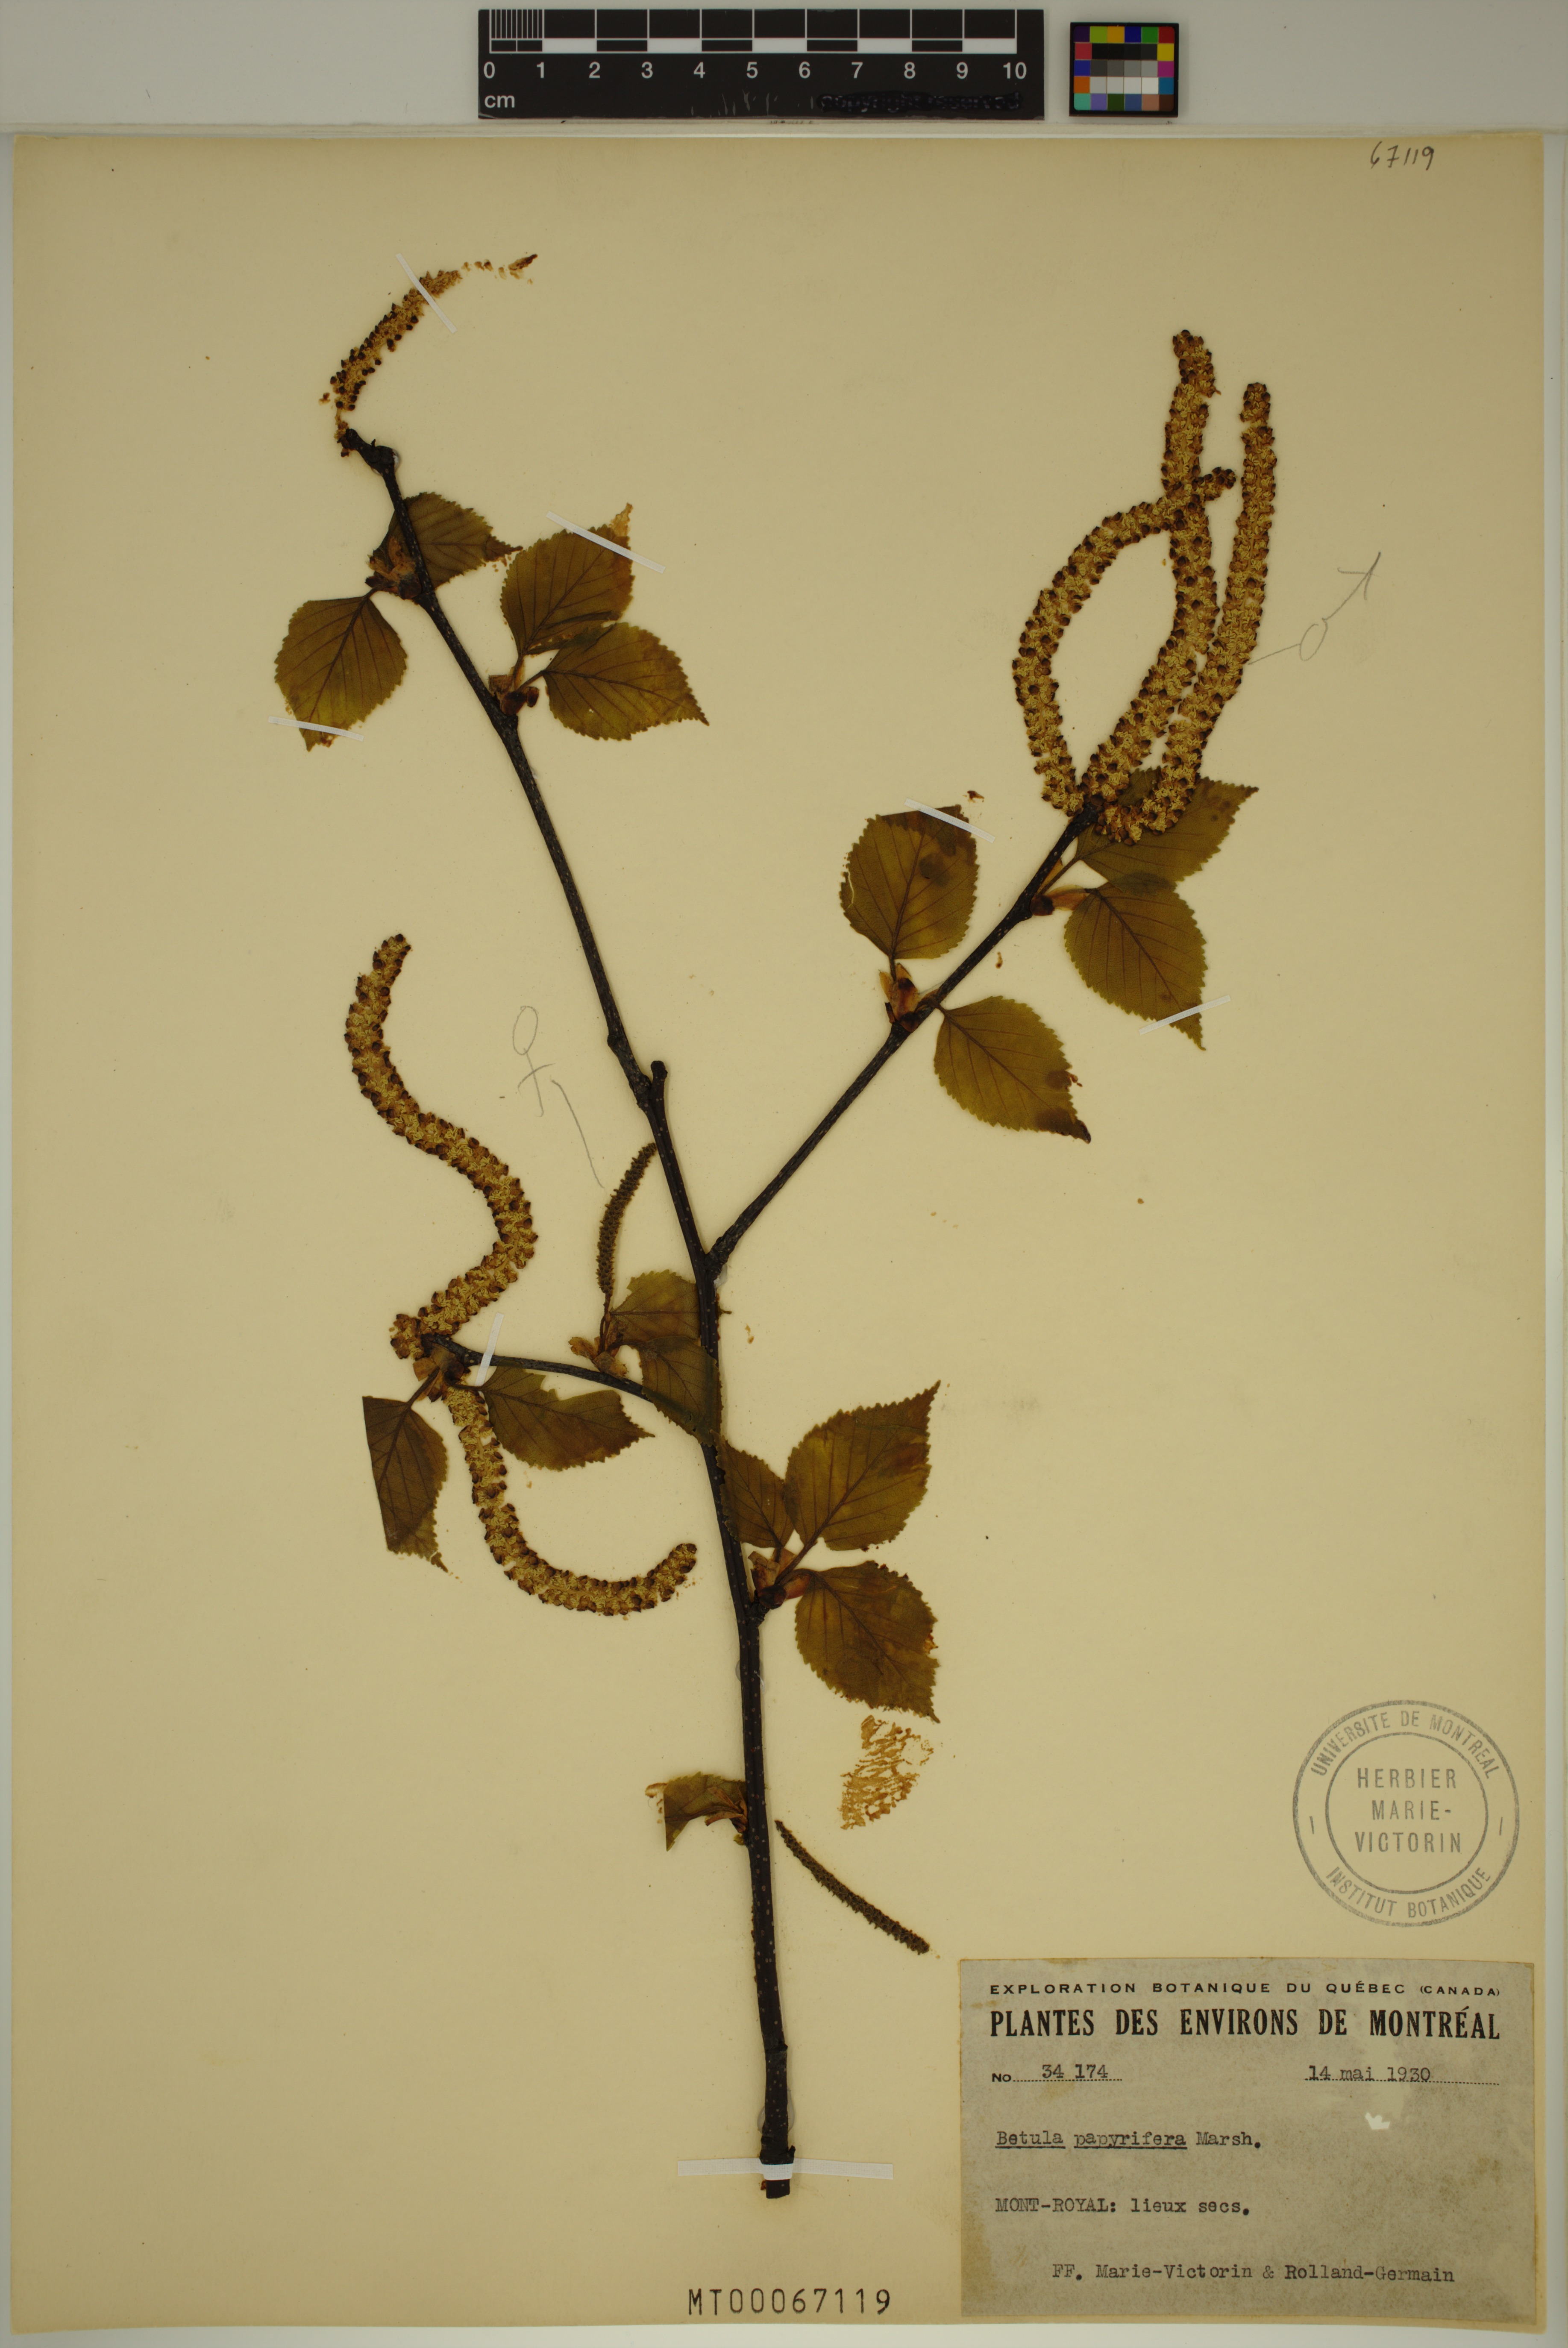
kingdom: Plantae
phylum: Tracheophyta
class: Magnoliopsida
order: Fagales
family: Betulaceae
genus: Betula
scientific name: Betula papyrifera
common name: Paper birch
